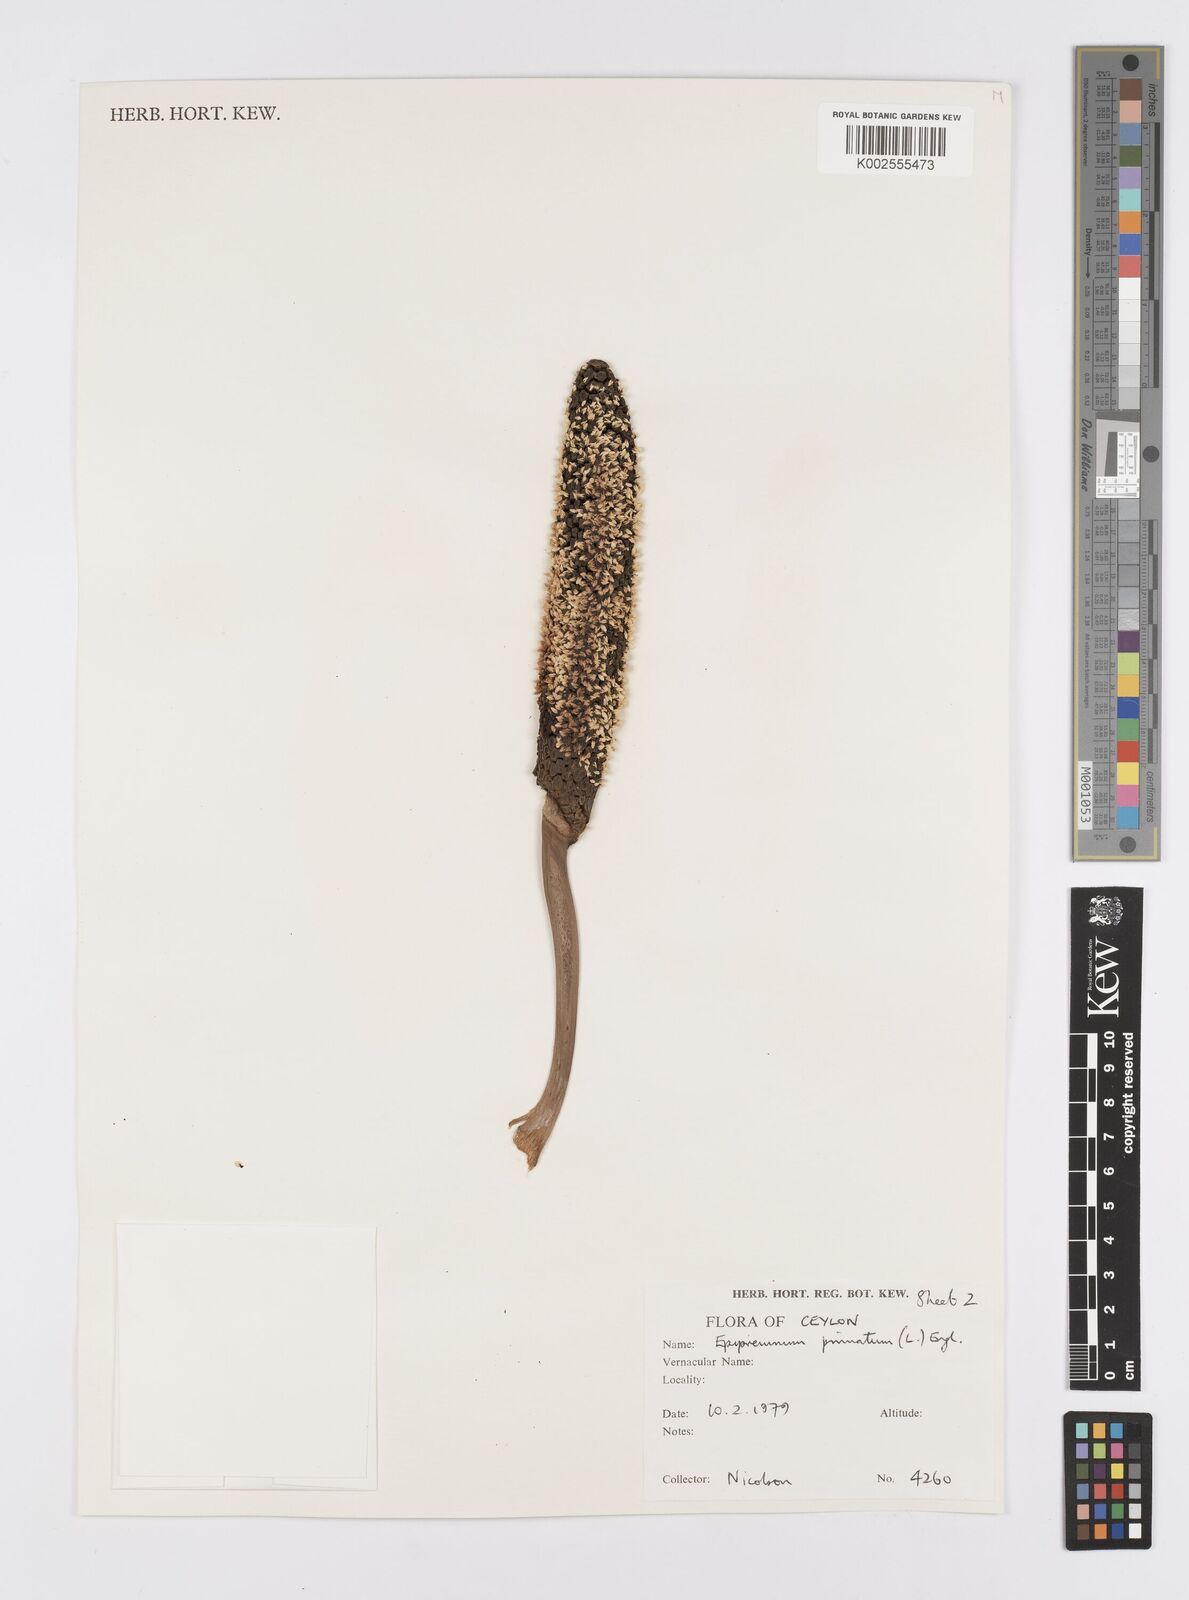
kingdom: Plantae
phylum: Tracheophyta
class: Liliopsida
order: Alismatales
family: Araceae
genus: Epipremnum
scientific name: Epipremnum pinnatum
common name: Centipede tongavine
